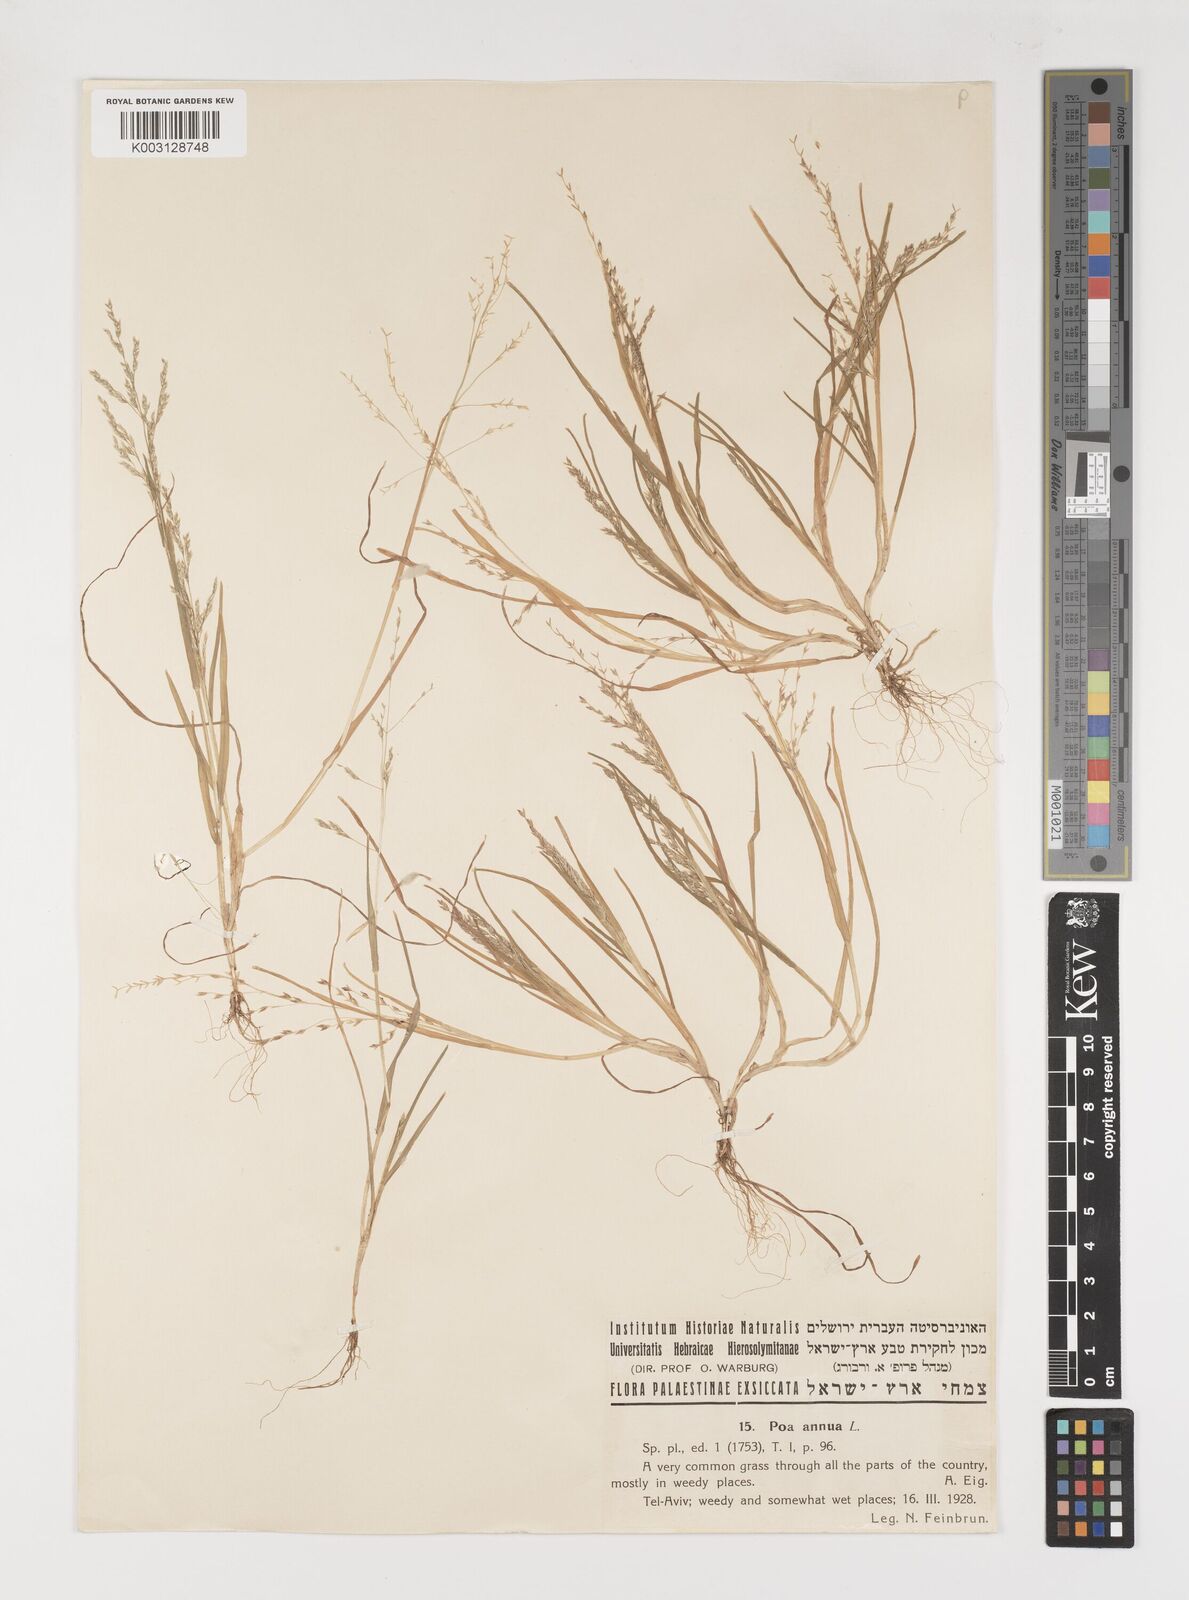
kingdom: Plantae
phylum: Tracheophyta
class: Liliopsida
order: Poales
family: Poaceae
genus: Poa
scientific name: Poa infirma
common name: Weak bluegrass
